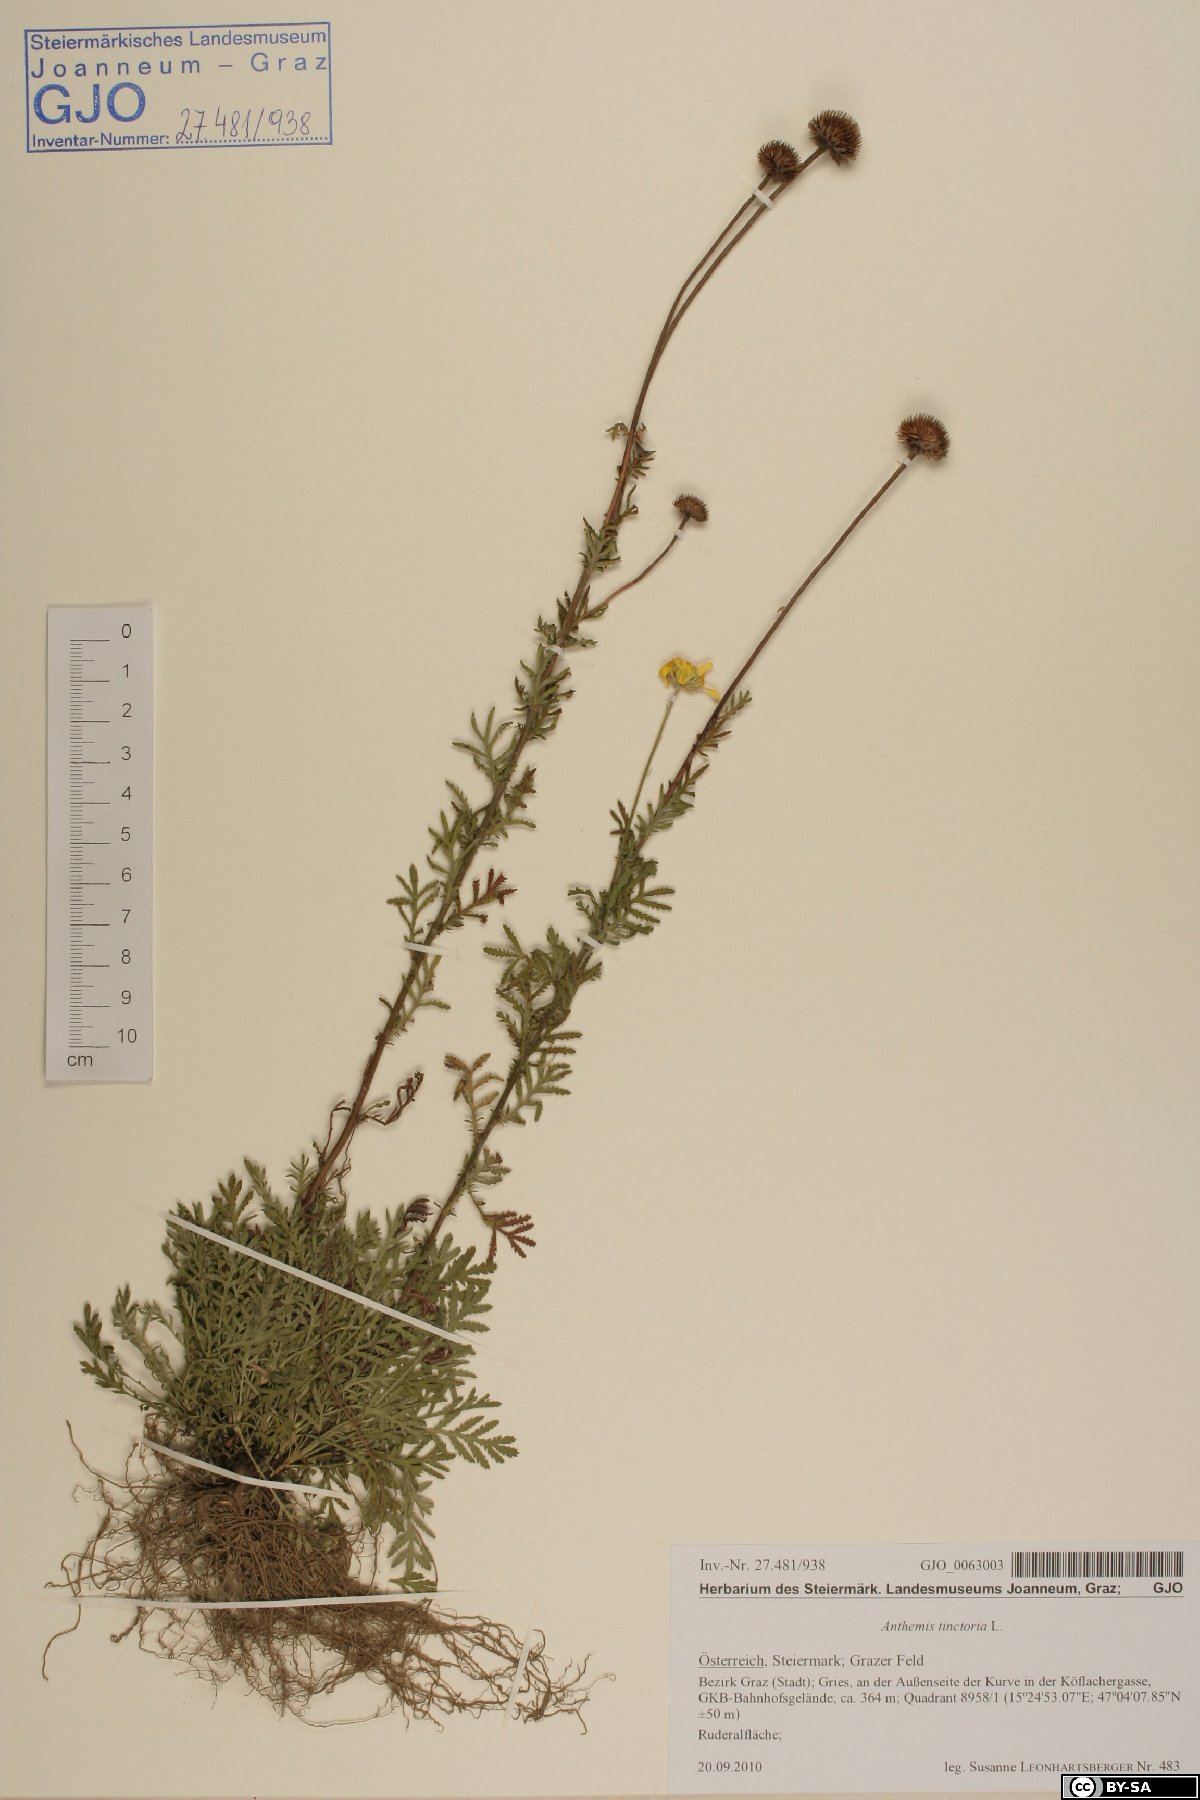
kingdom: Plantae
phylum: Tracheophyta
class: Magnoliopsida
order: Asterales
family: Asteraceae
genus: Cota
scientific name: Cota tinctoria
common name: Golden chamomile
